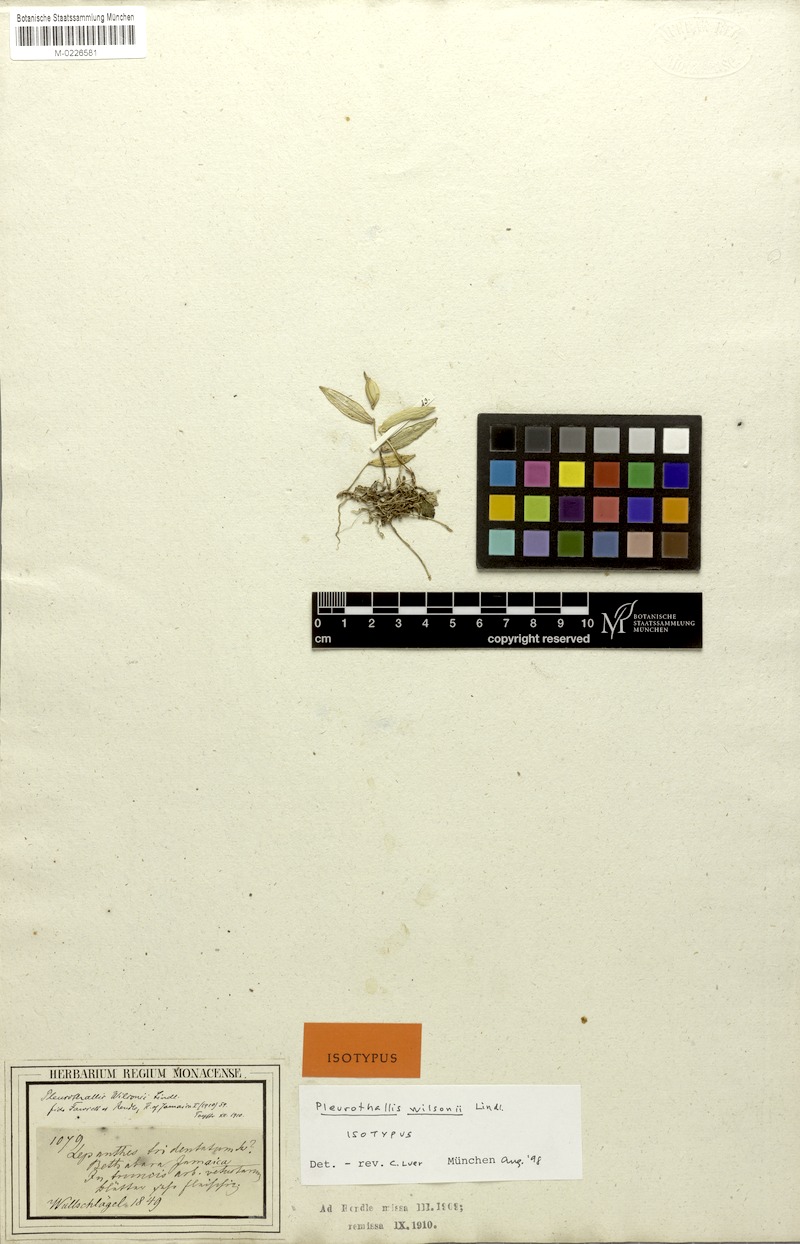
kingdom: Plantae
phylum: Tracheophyta
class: Liliopsida
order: Asparagales
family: Orchidaceae
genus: Acianthera
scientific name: Acianthera angustifolia
